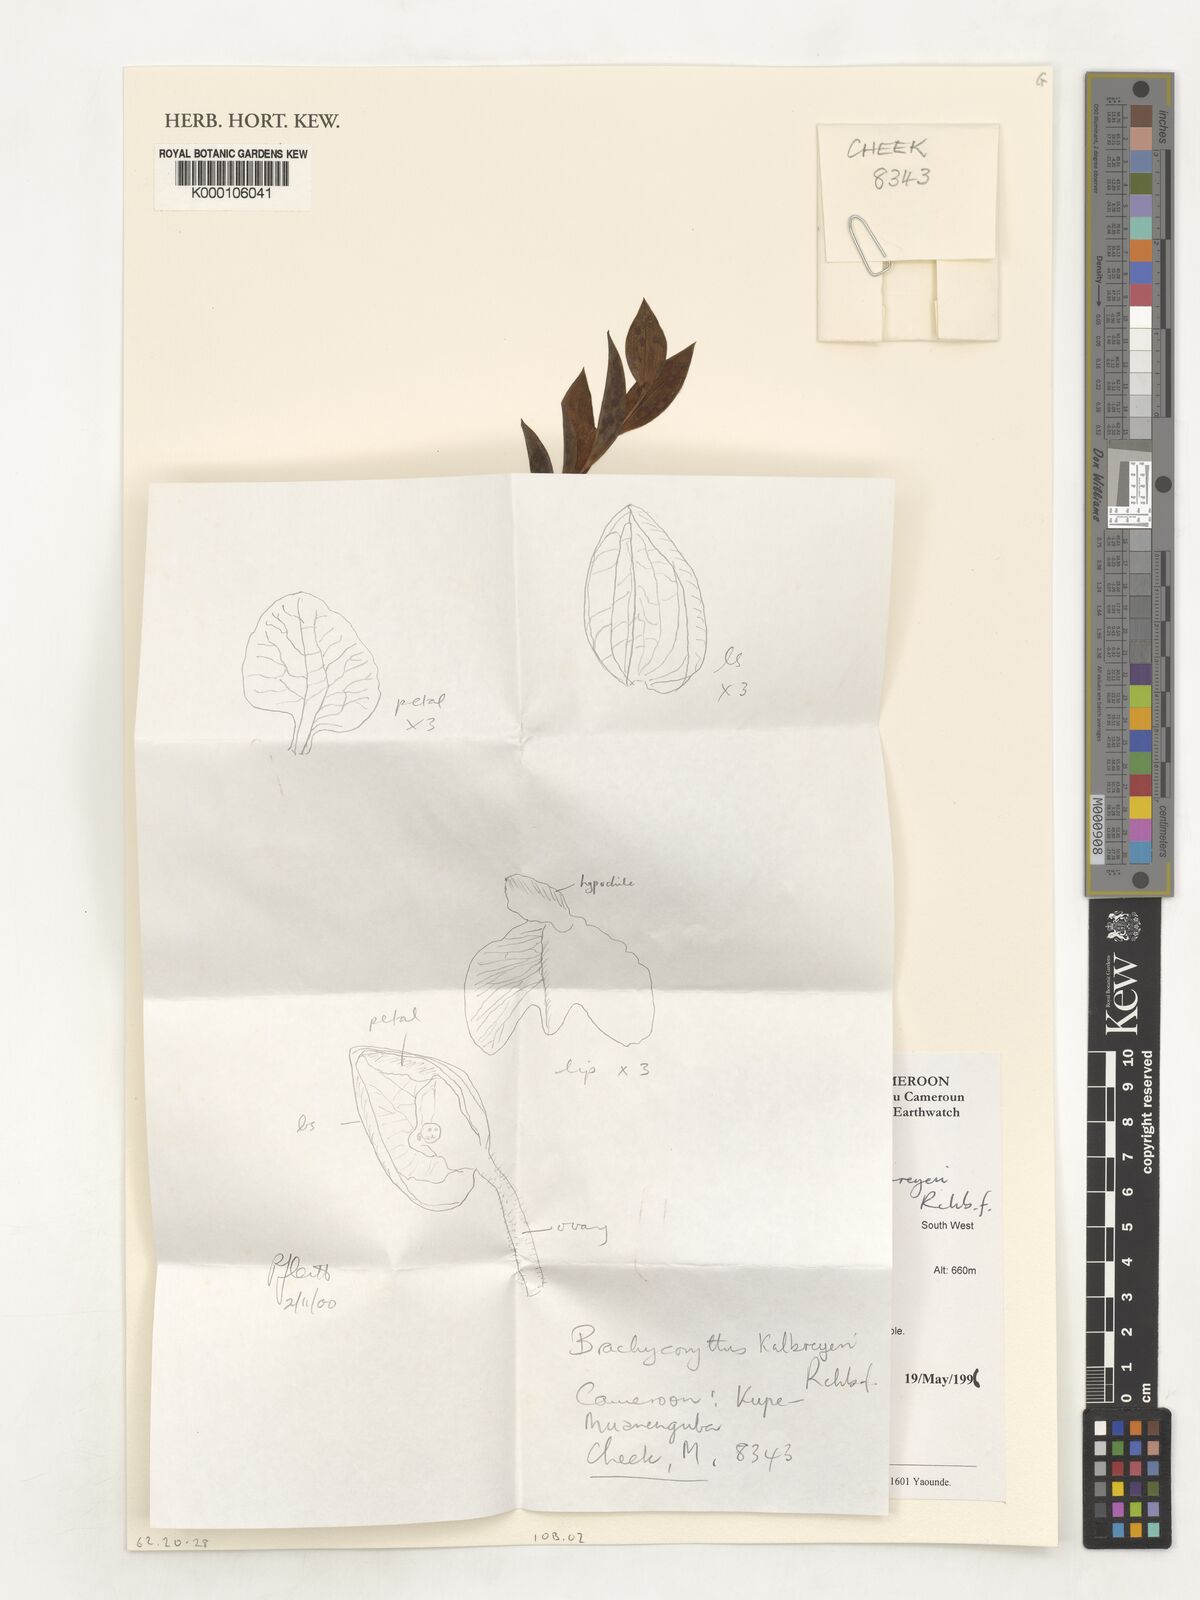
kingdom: Plantae
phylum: Tracheophyta
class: Liliopsida
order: Asparagales
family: Orchidaceae
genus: Brachycorythis
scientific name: Brachycorythis kalbreyeri
